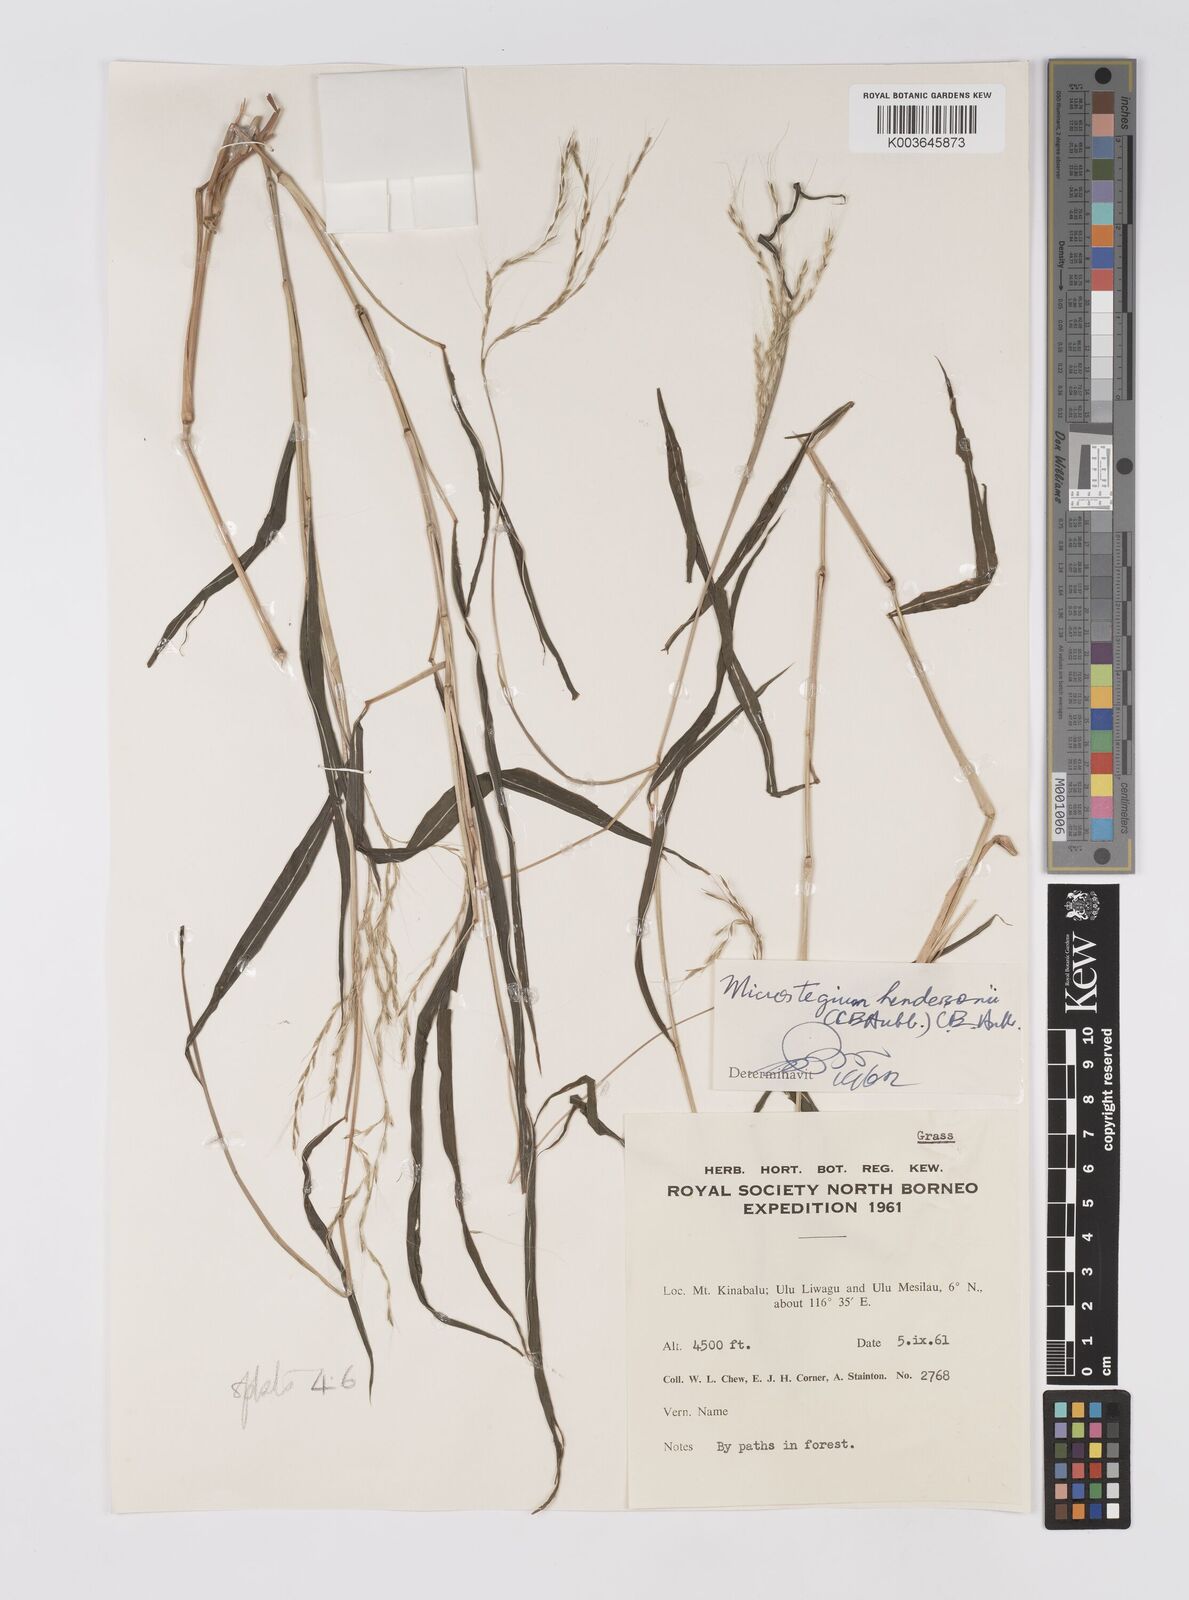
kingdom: Plantae
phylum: Tracheophyta
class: Liliopsida
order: Poales
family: Poaceae
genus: Microstegium
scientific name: Microstegium geniculatum
